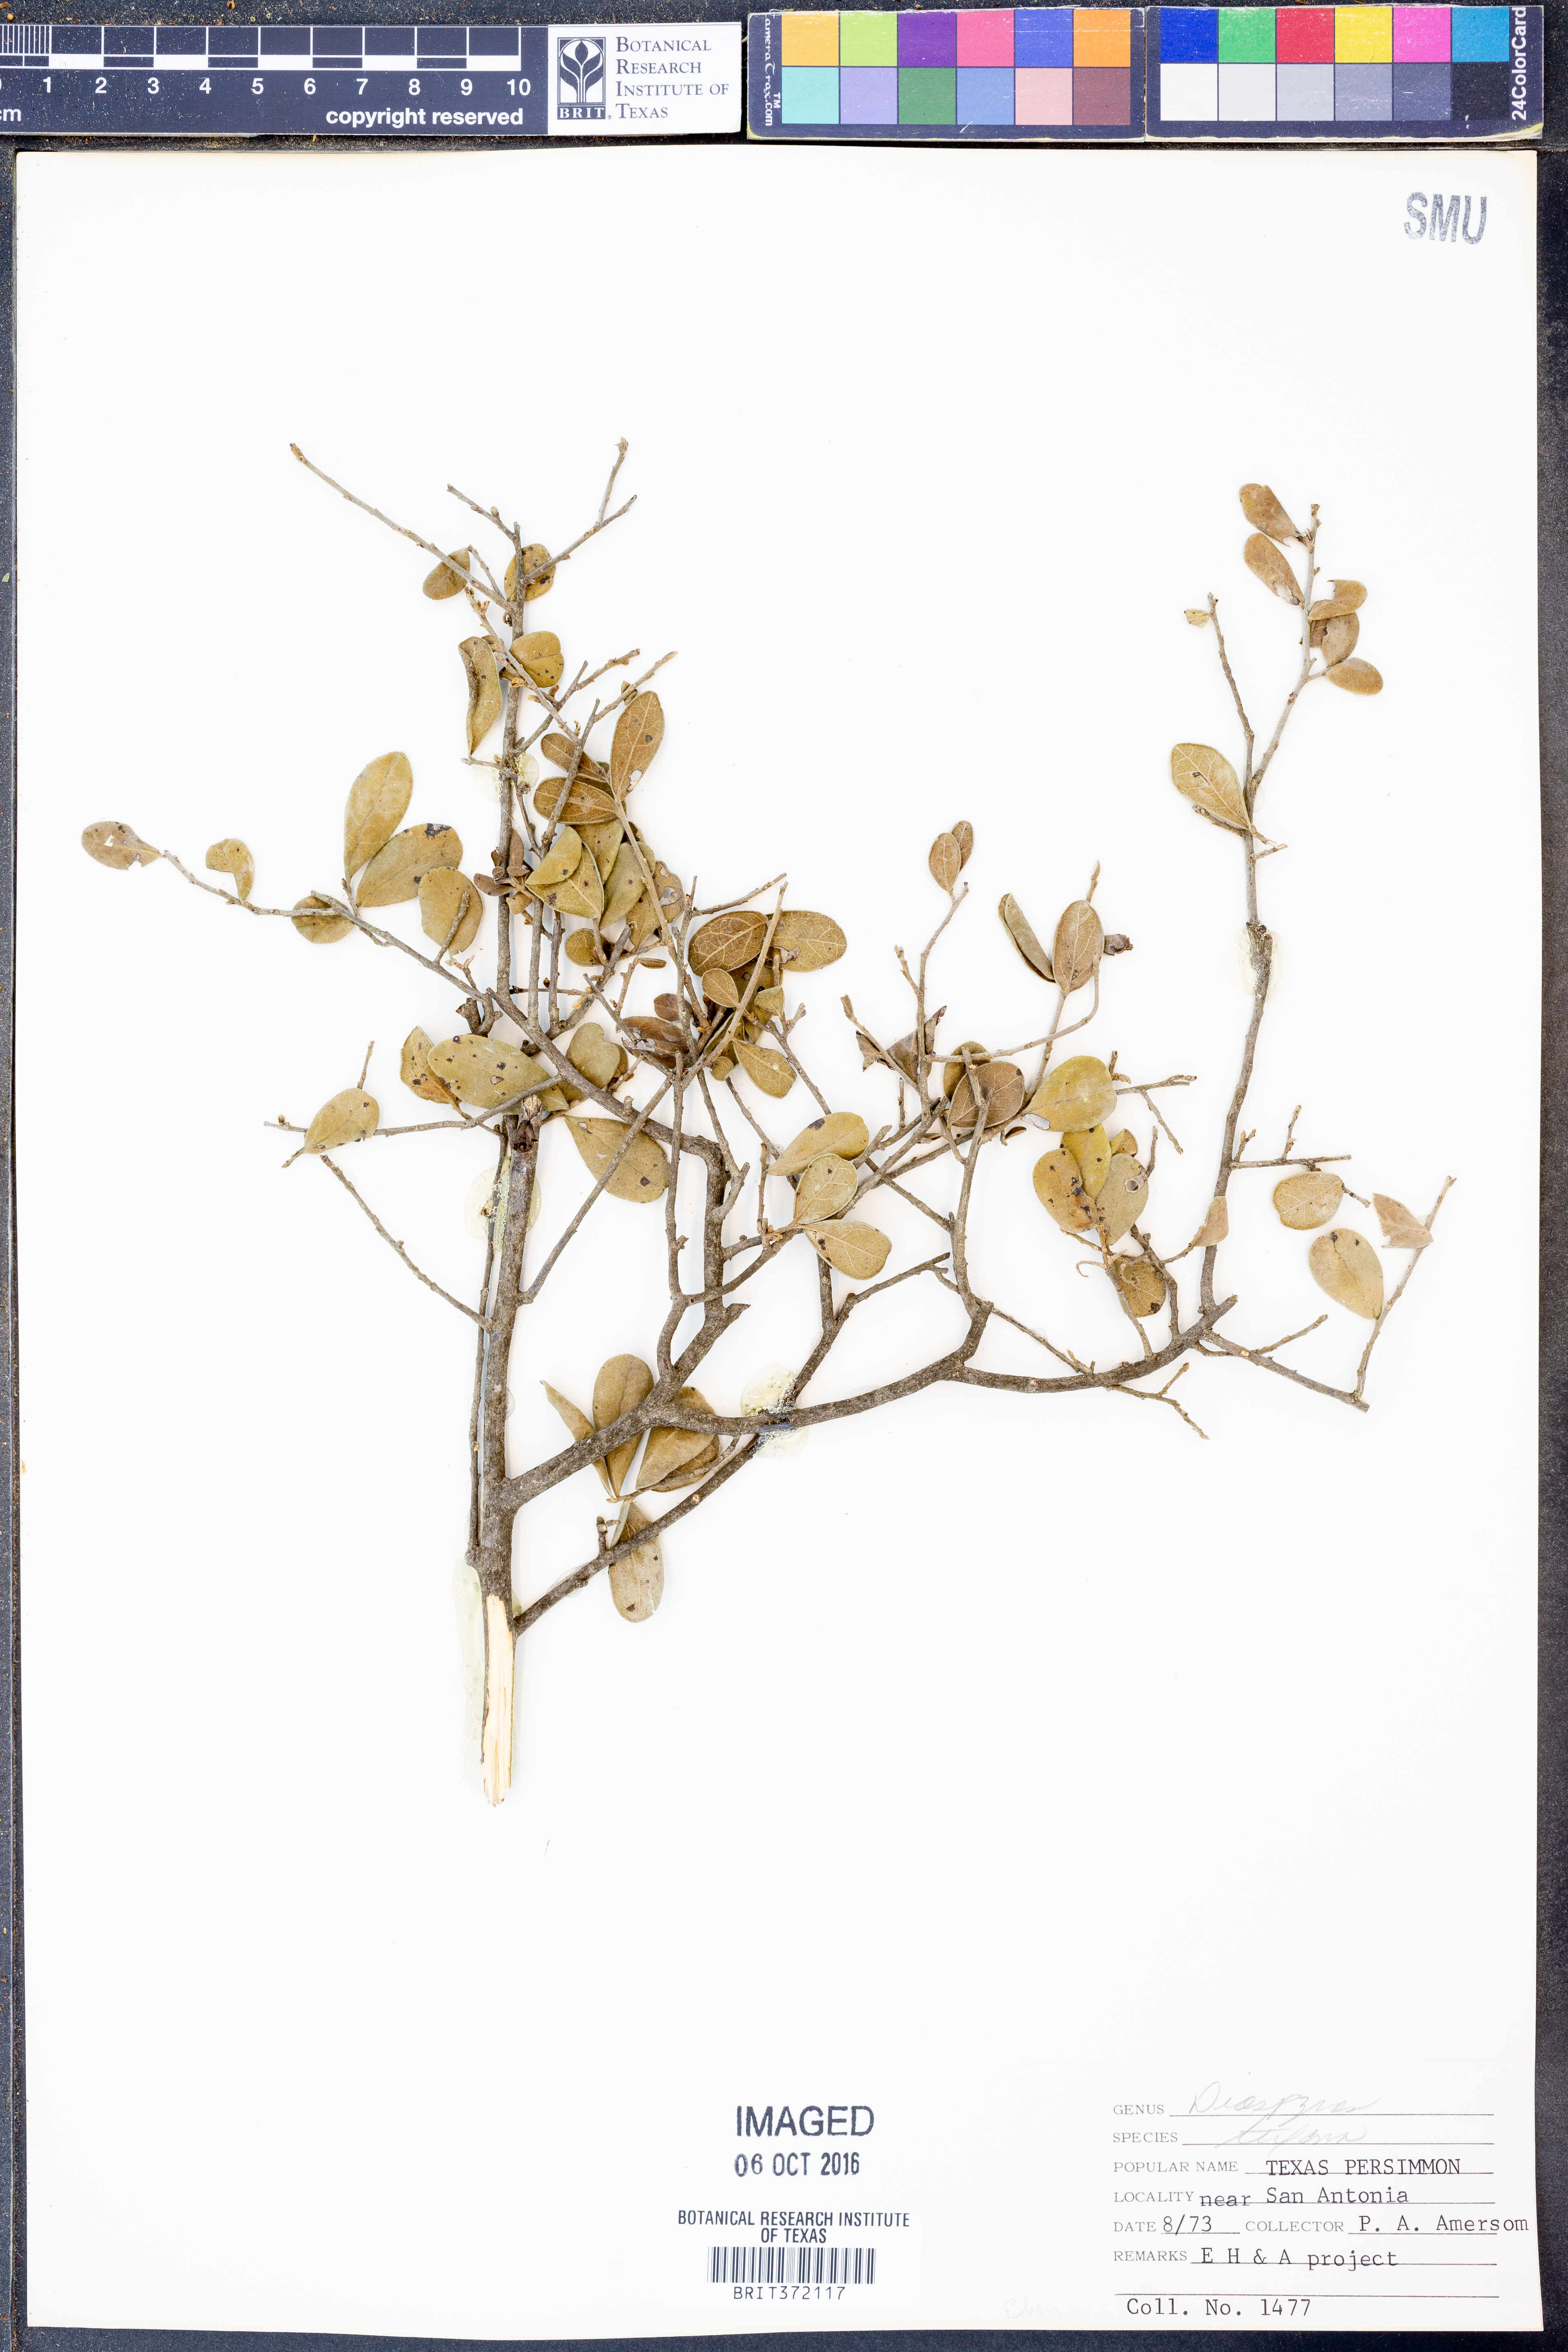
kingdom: Plantae
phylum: Tracheophyta
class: Magnoliopsida
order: Ericales
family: Ebenaceae
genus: Diospyros
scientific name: Diospyros texana
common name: Texas persimmon
